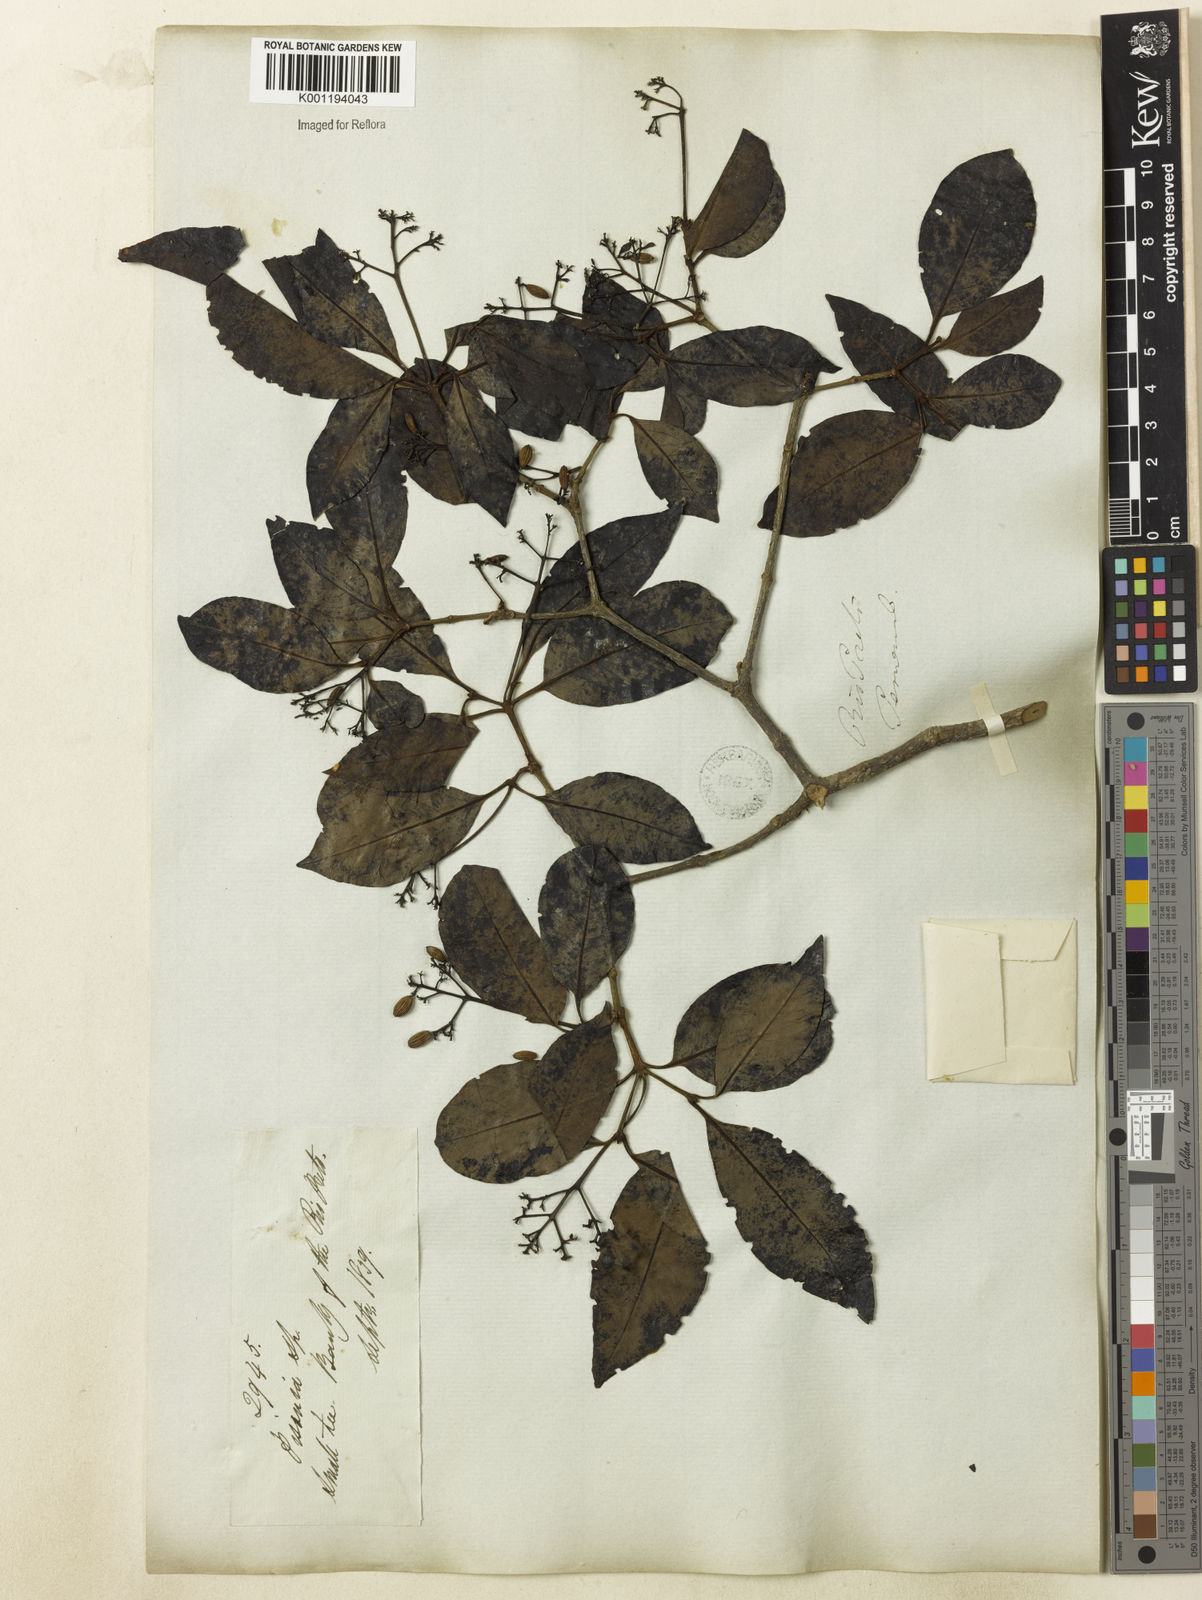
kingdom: Plantae
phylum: Tracheophyta
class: Magnoliopsida
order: Caryophyllales
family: Nyctaginaceae
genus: Guapira
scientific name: Guapira pacurero
